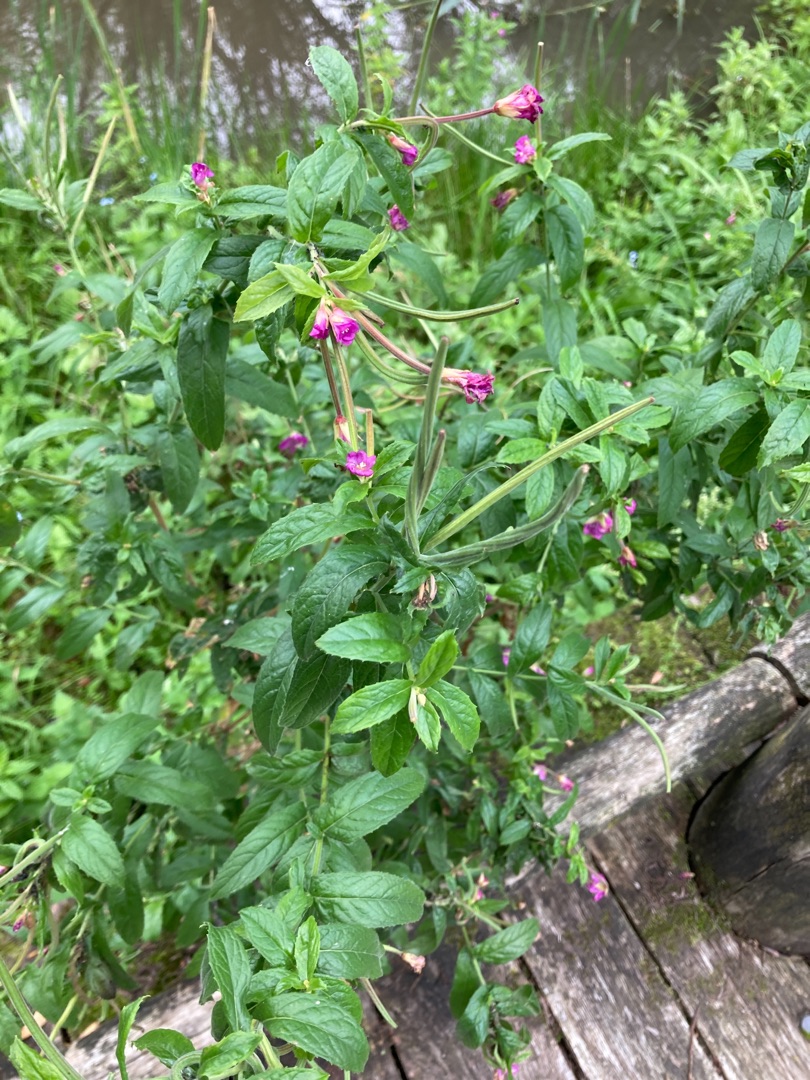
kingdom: Plantae
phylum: Tracheophyta
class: Magnoliopsida
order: Myrtales
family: Onagraceae
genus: Epilobium
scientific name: Epilobium hirsutum
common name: Lådden dueurt
